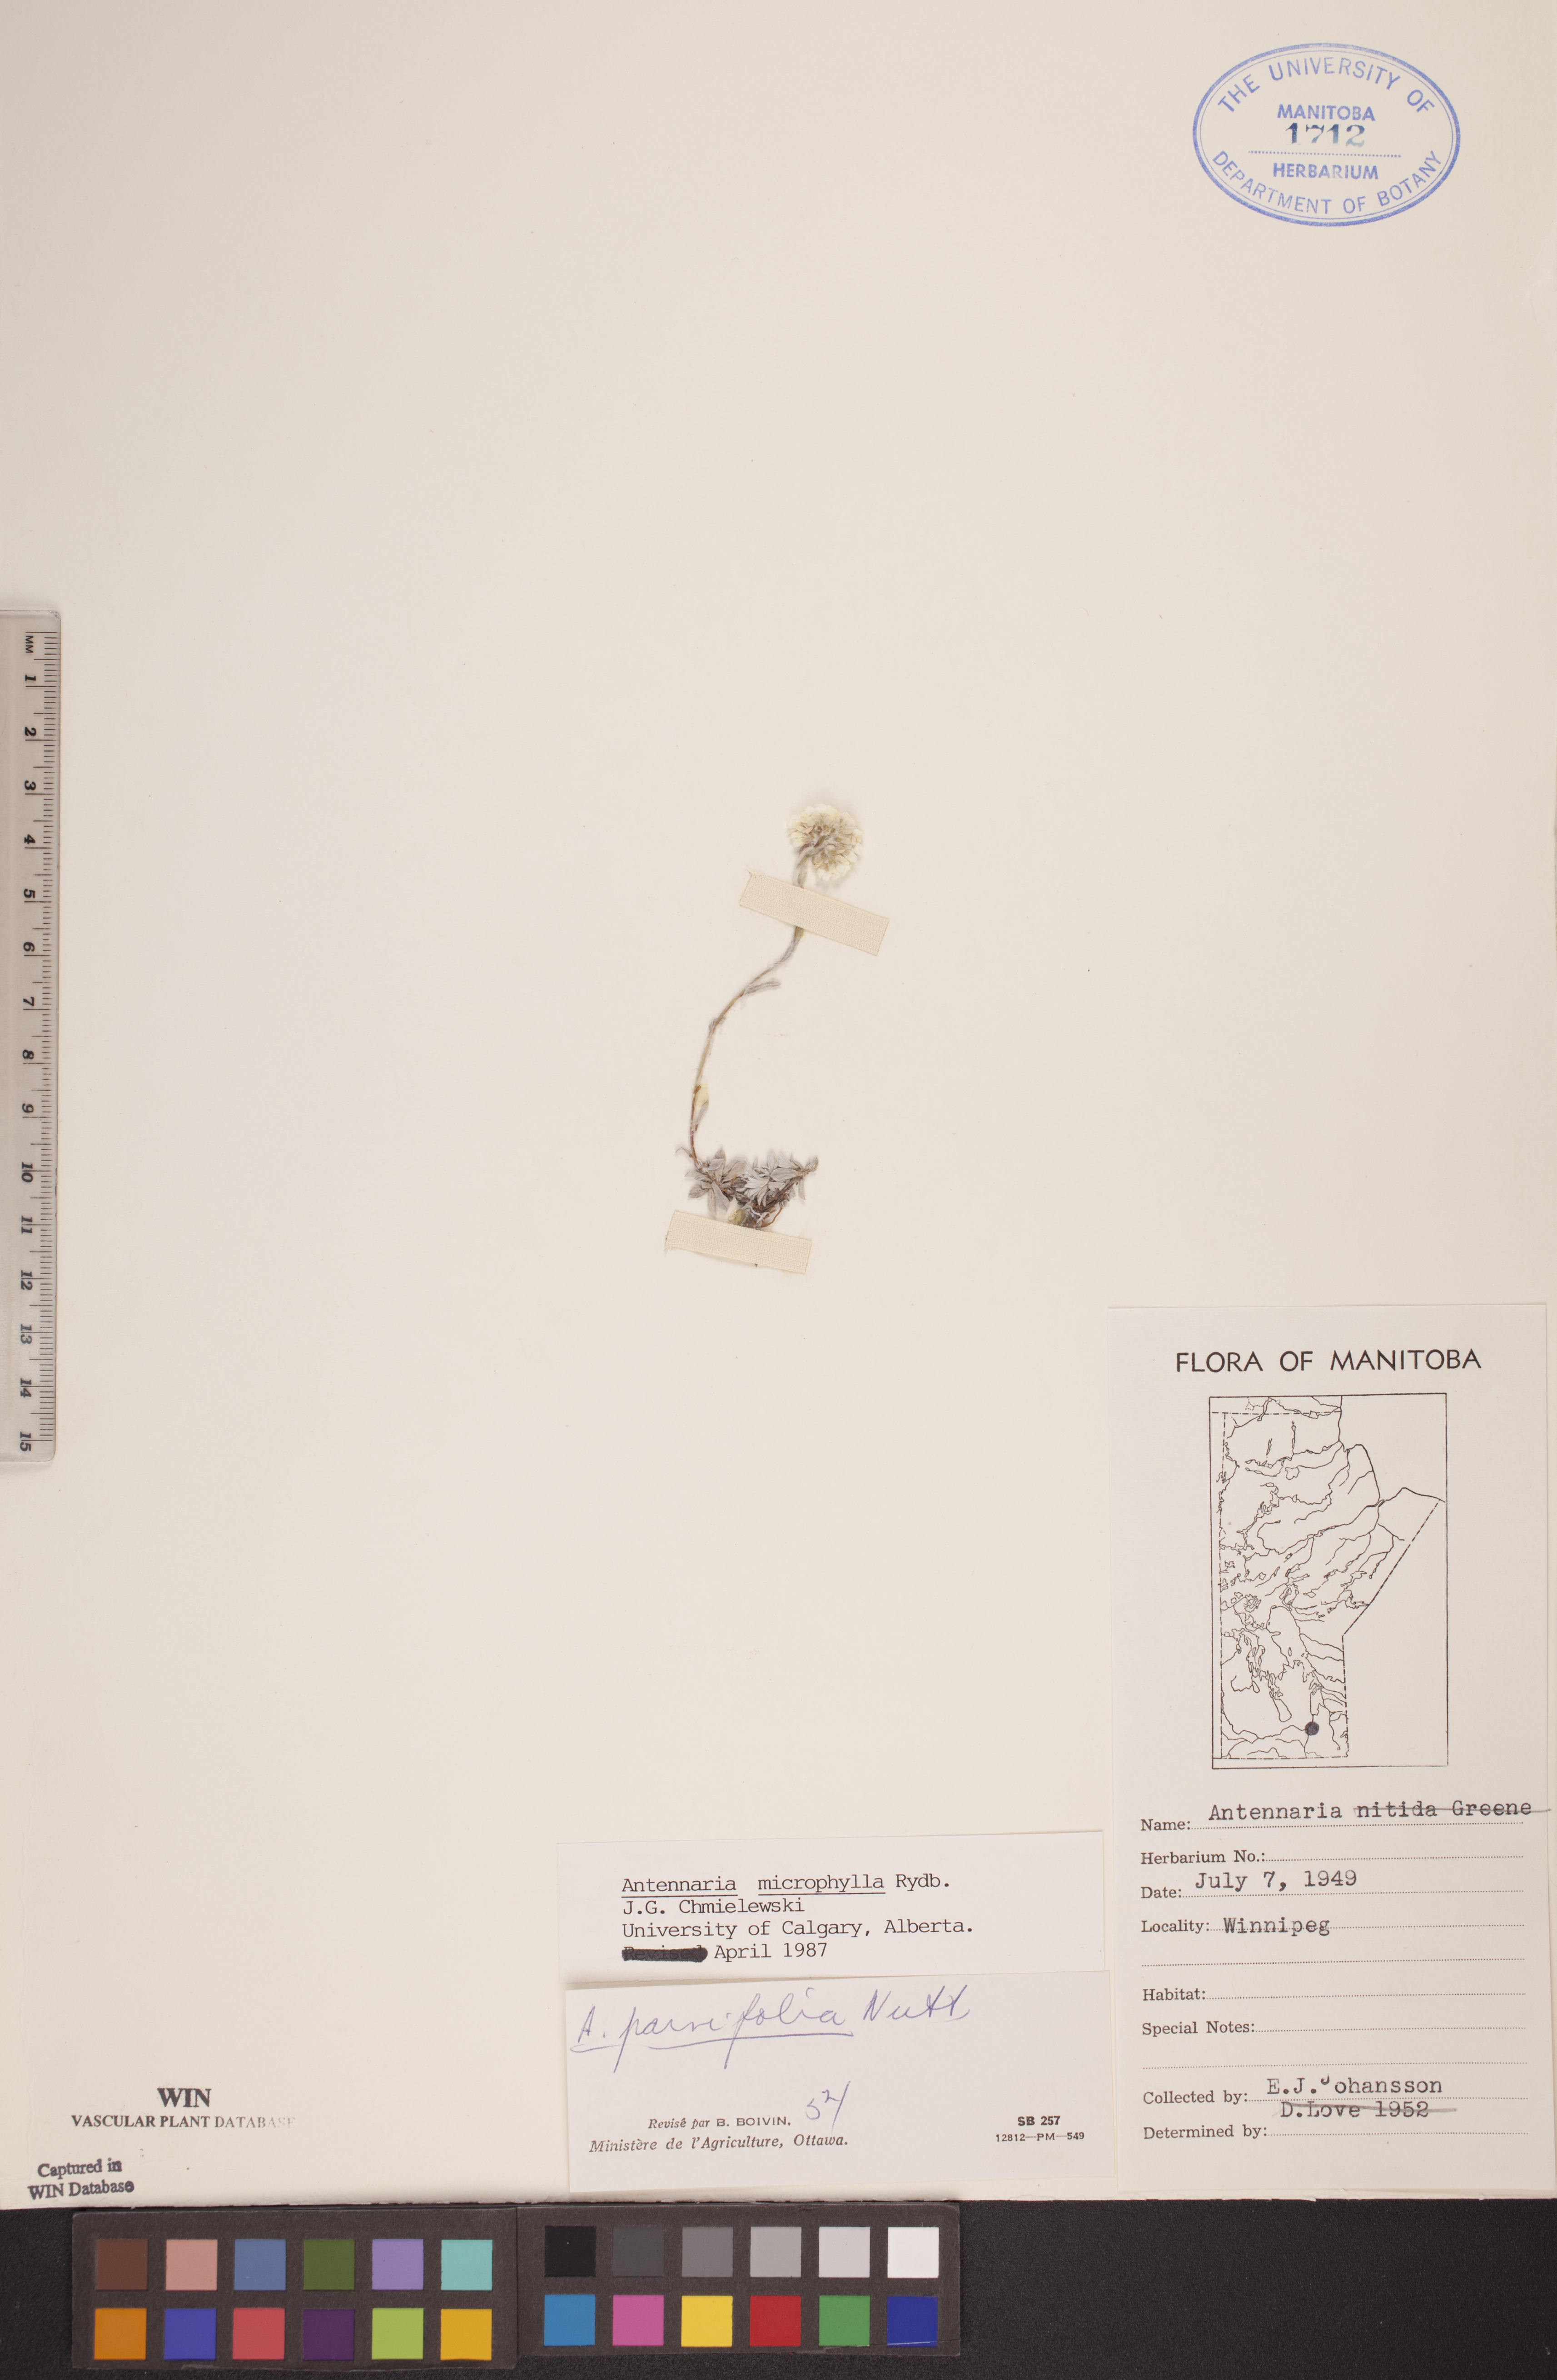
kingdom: Plantae
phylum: Tracheophyta
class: Magnoliopsida
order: Asterales
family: Asteraceae
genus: Antennaria
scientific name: Antennaria microphylla
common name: Littleleaf pussytoes
